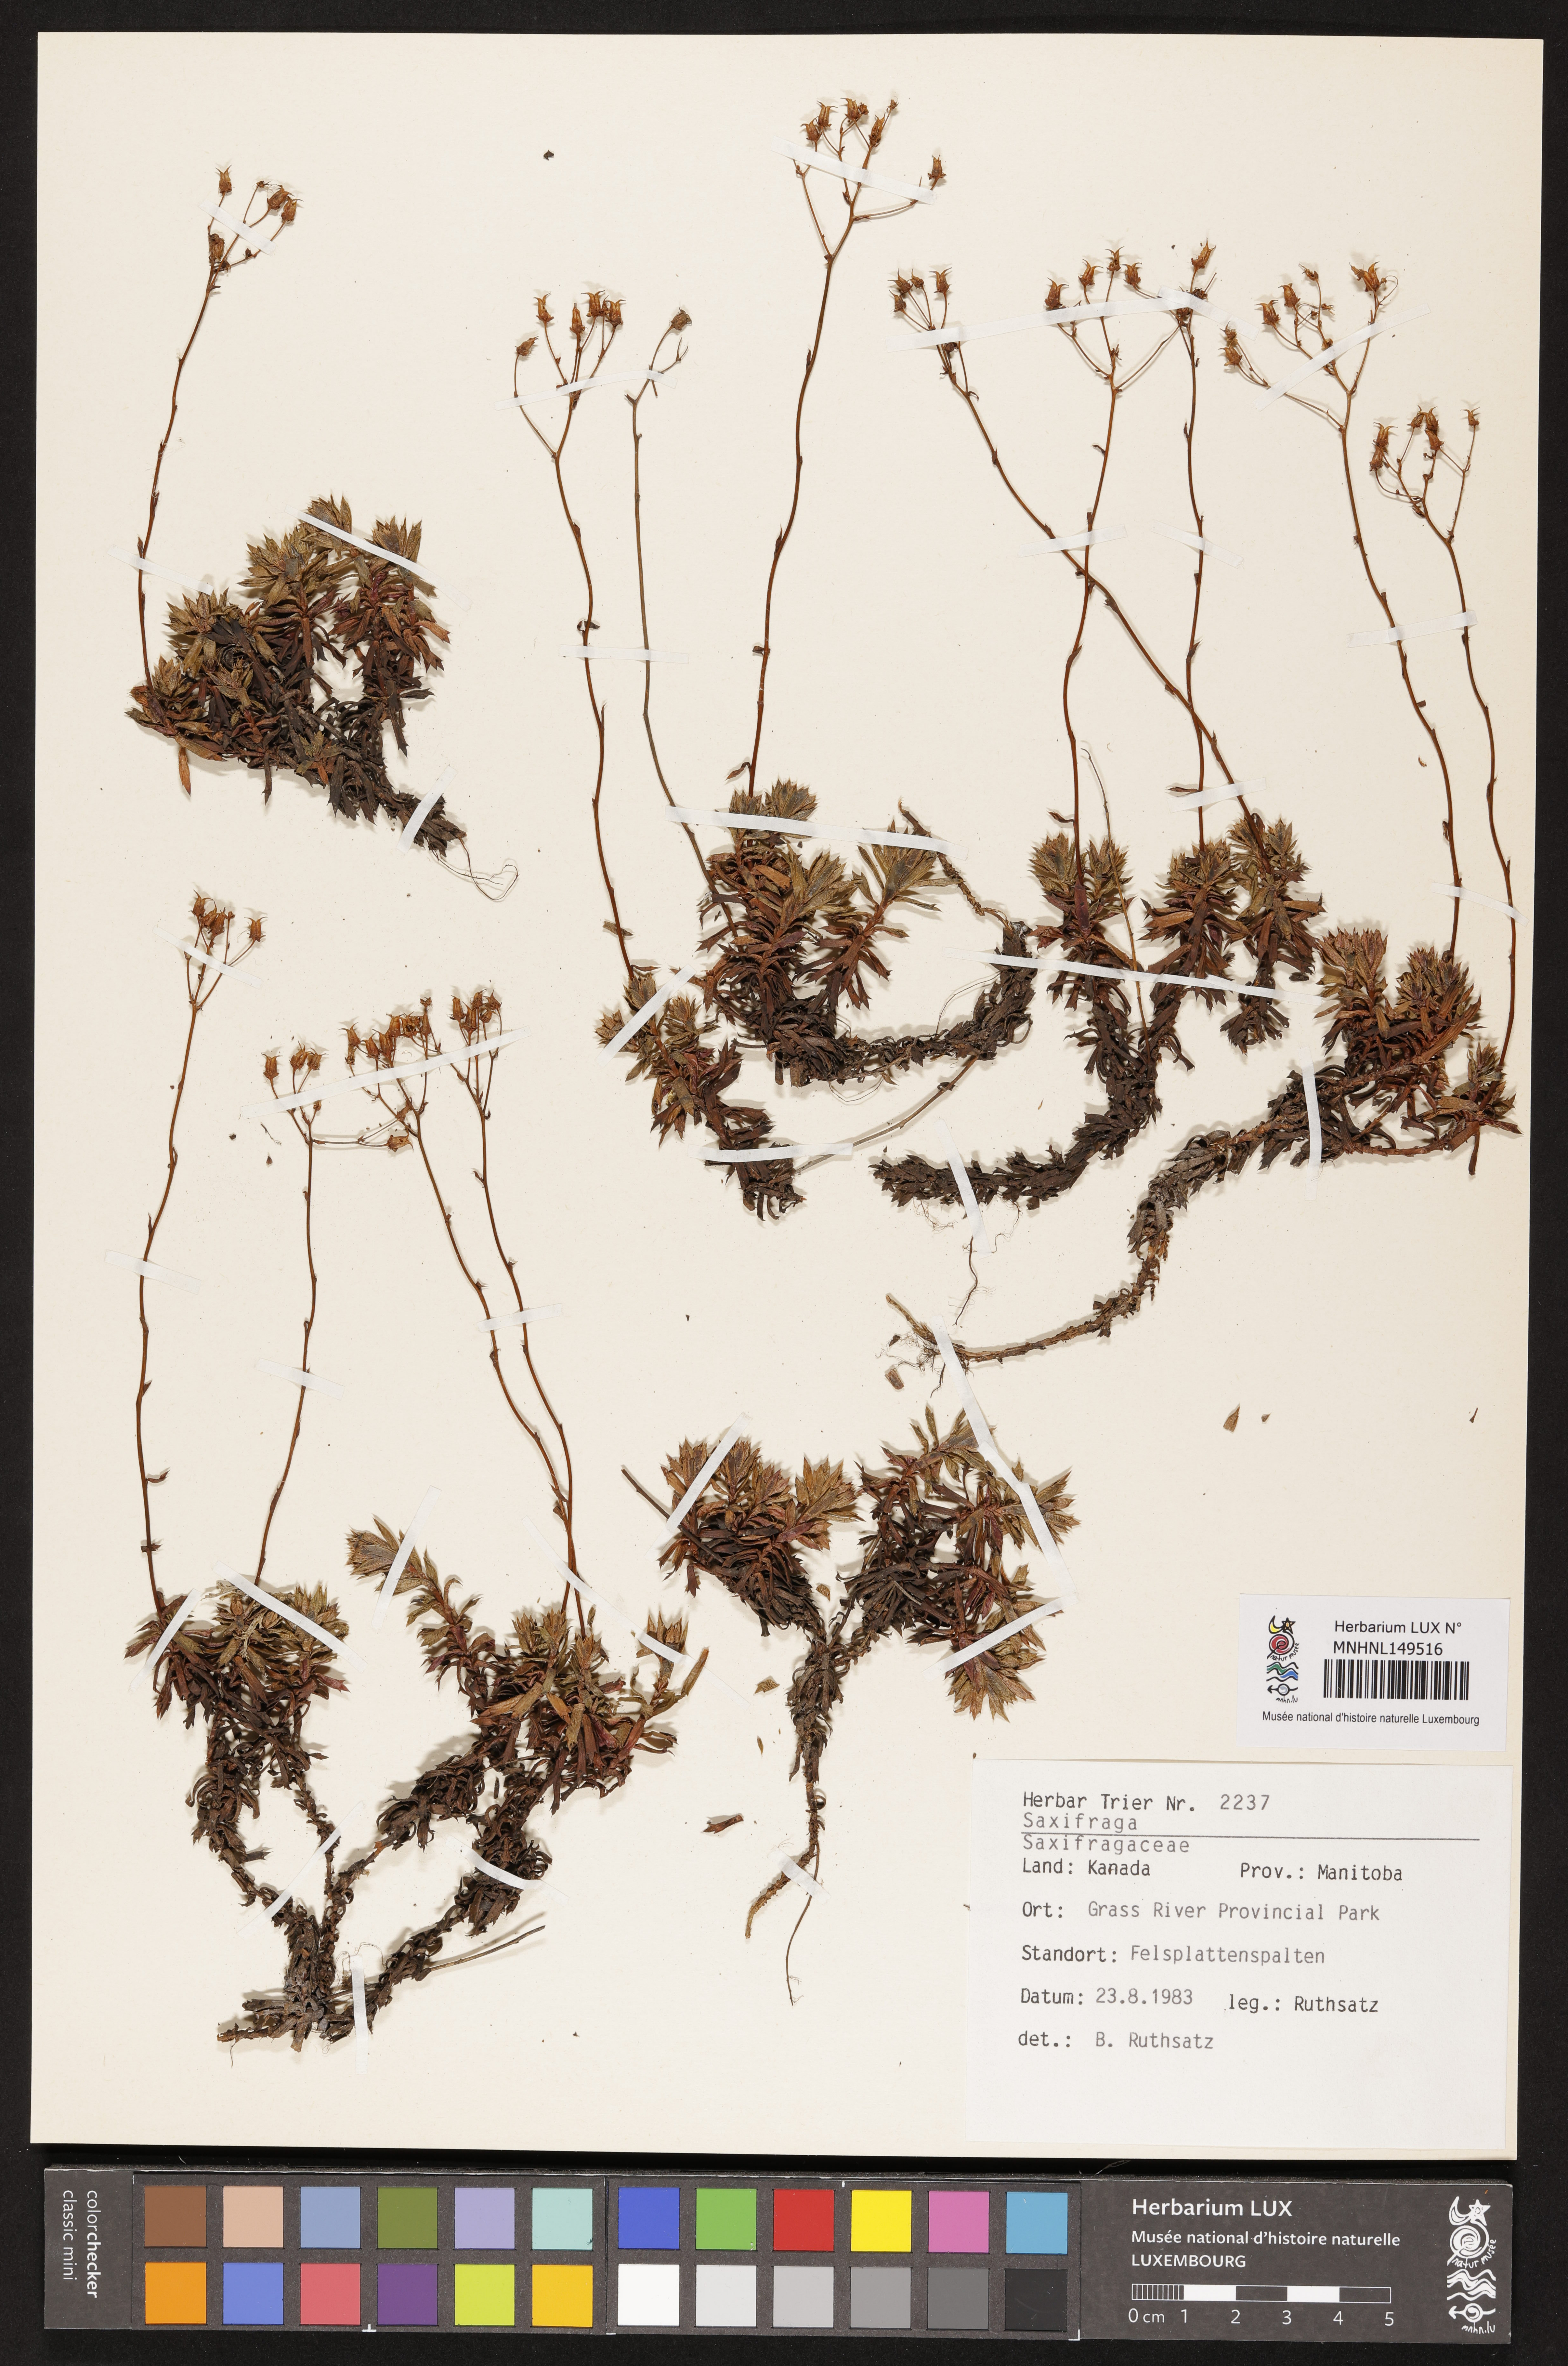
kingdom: Plantae
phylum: Tracheophyta
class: Magnoliopsida
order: Saxifragales
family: Saxifragaceae
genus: Saxifraga
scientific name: Saxifraga
